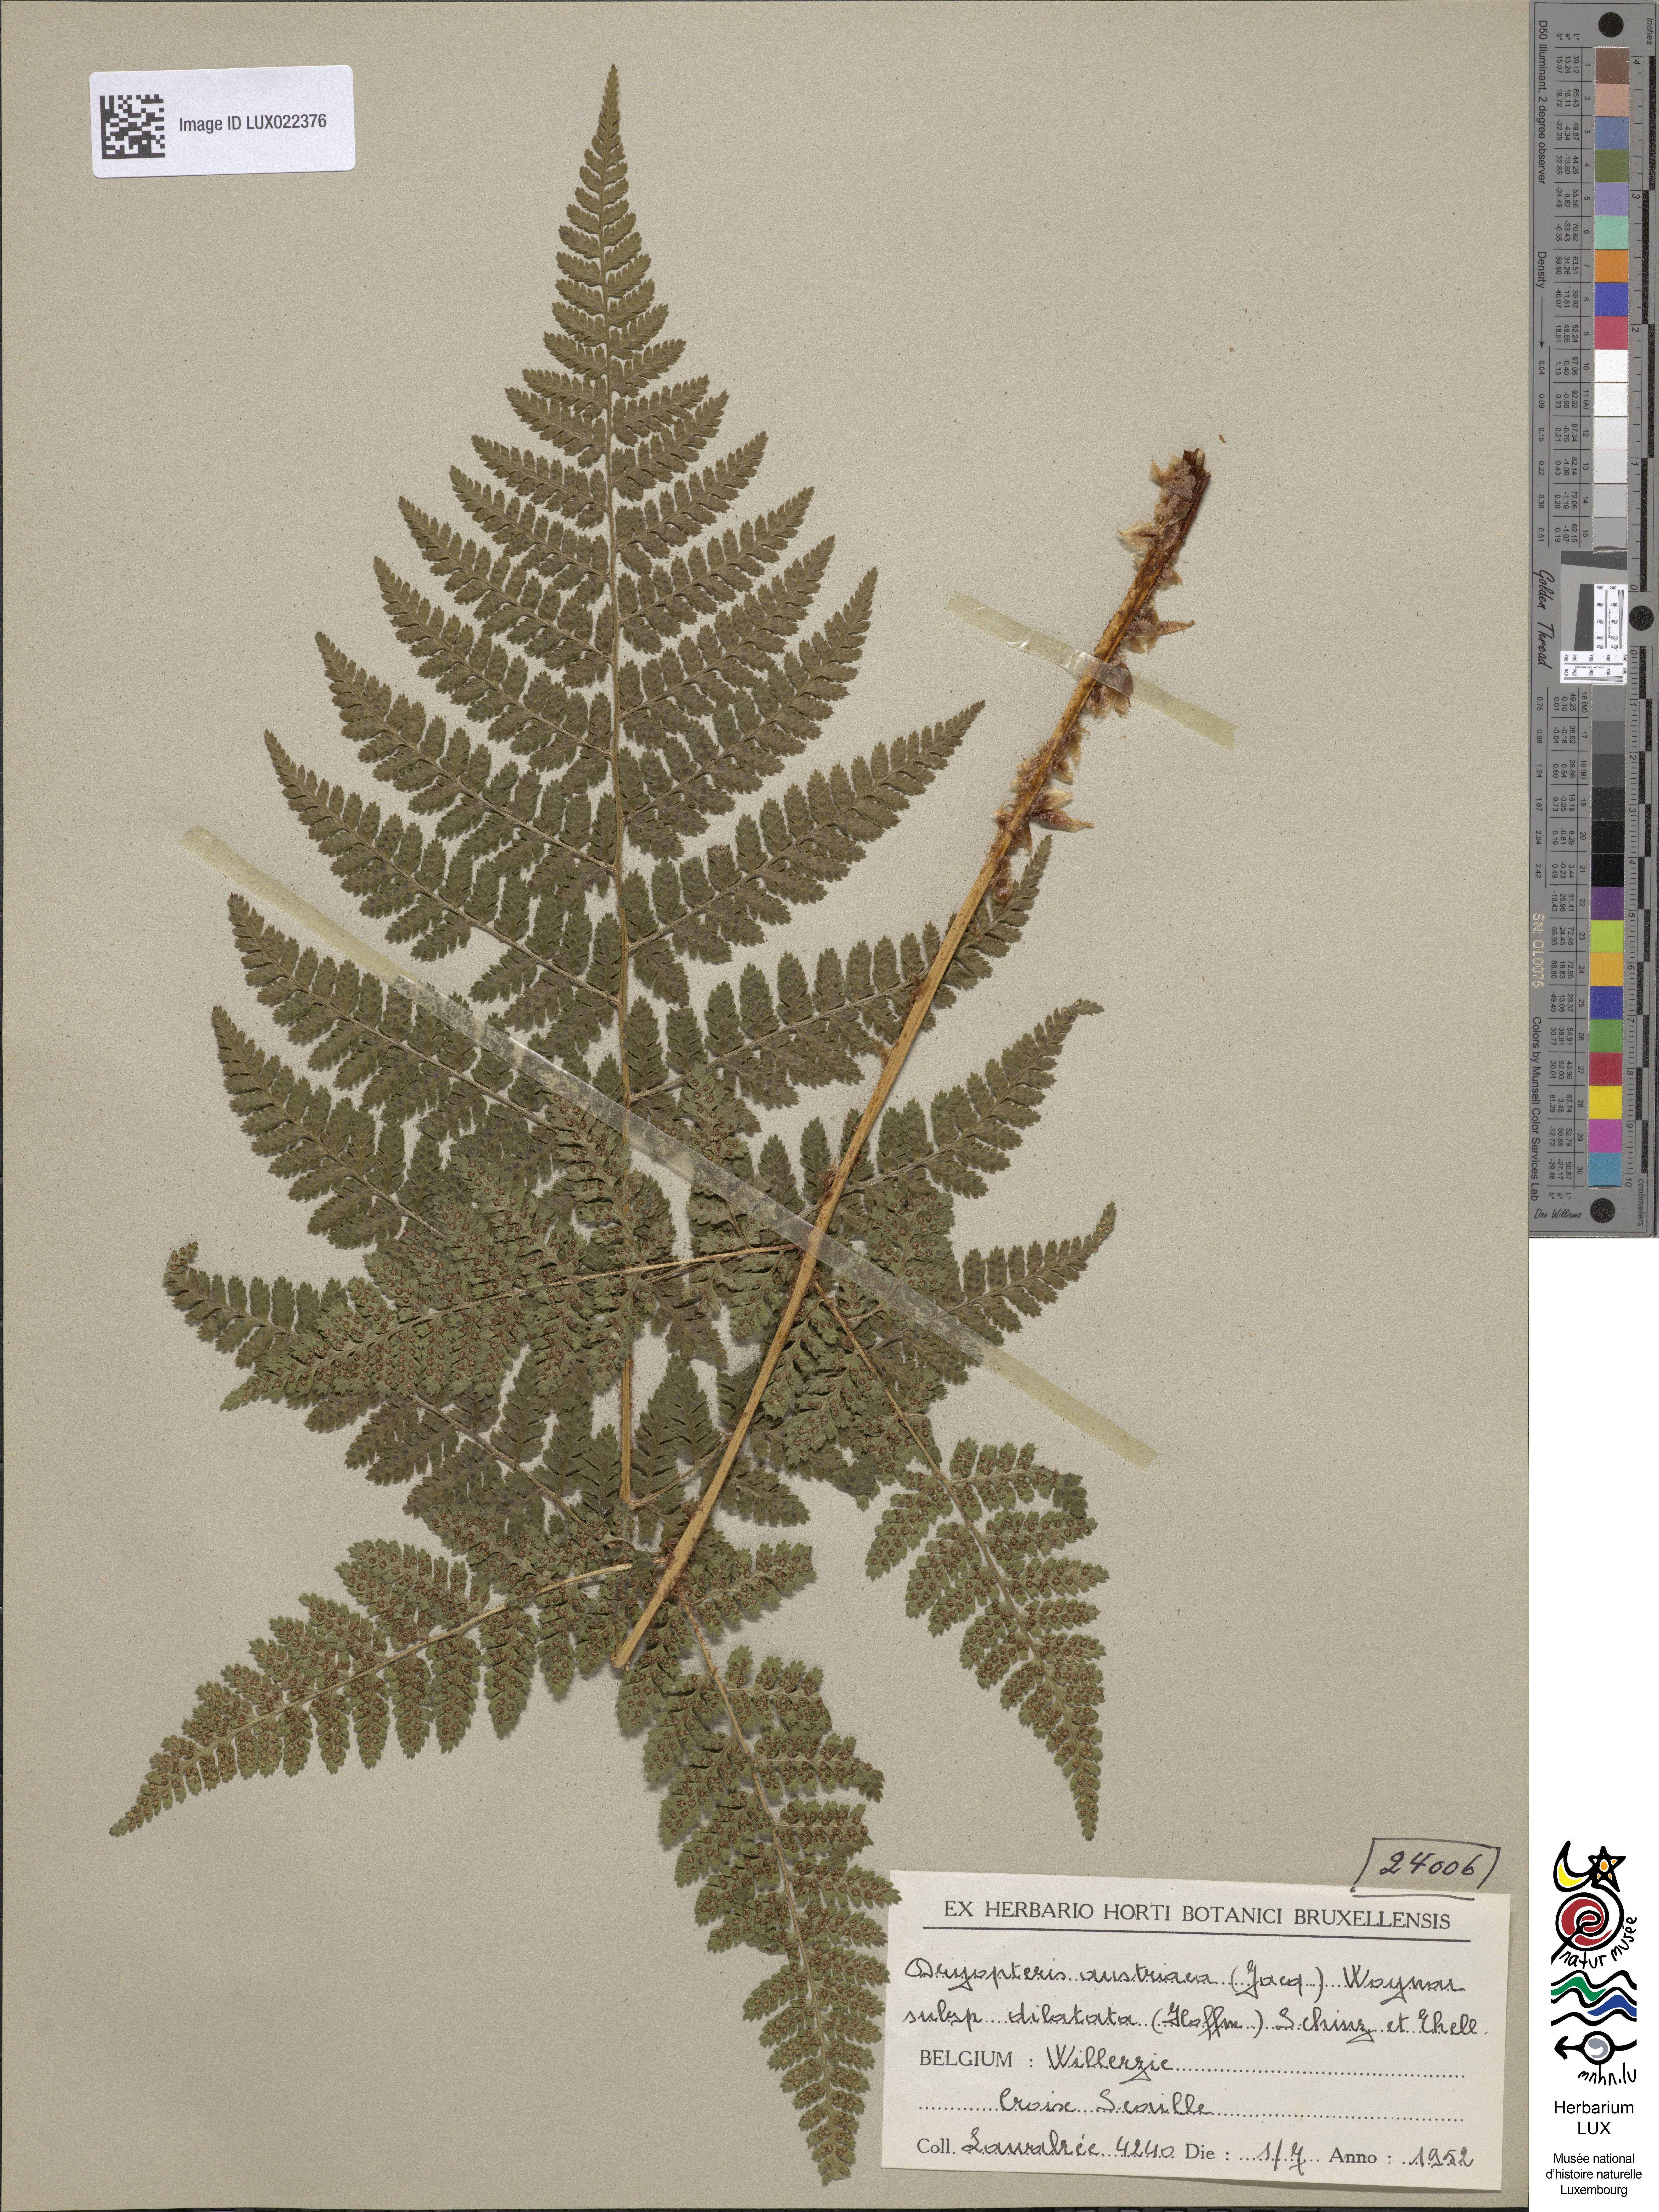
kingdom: Plantae
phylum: Tracheophyta
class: Polypodiopsida
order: Polypodiales
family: Dryopteridaceae
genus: Dryopteris
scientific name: Dryopteris dilatata
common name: Broad buckler-fern
